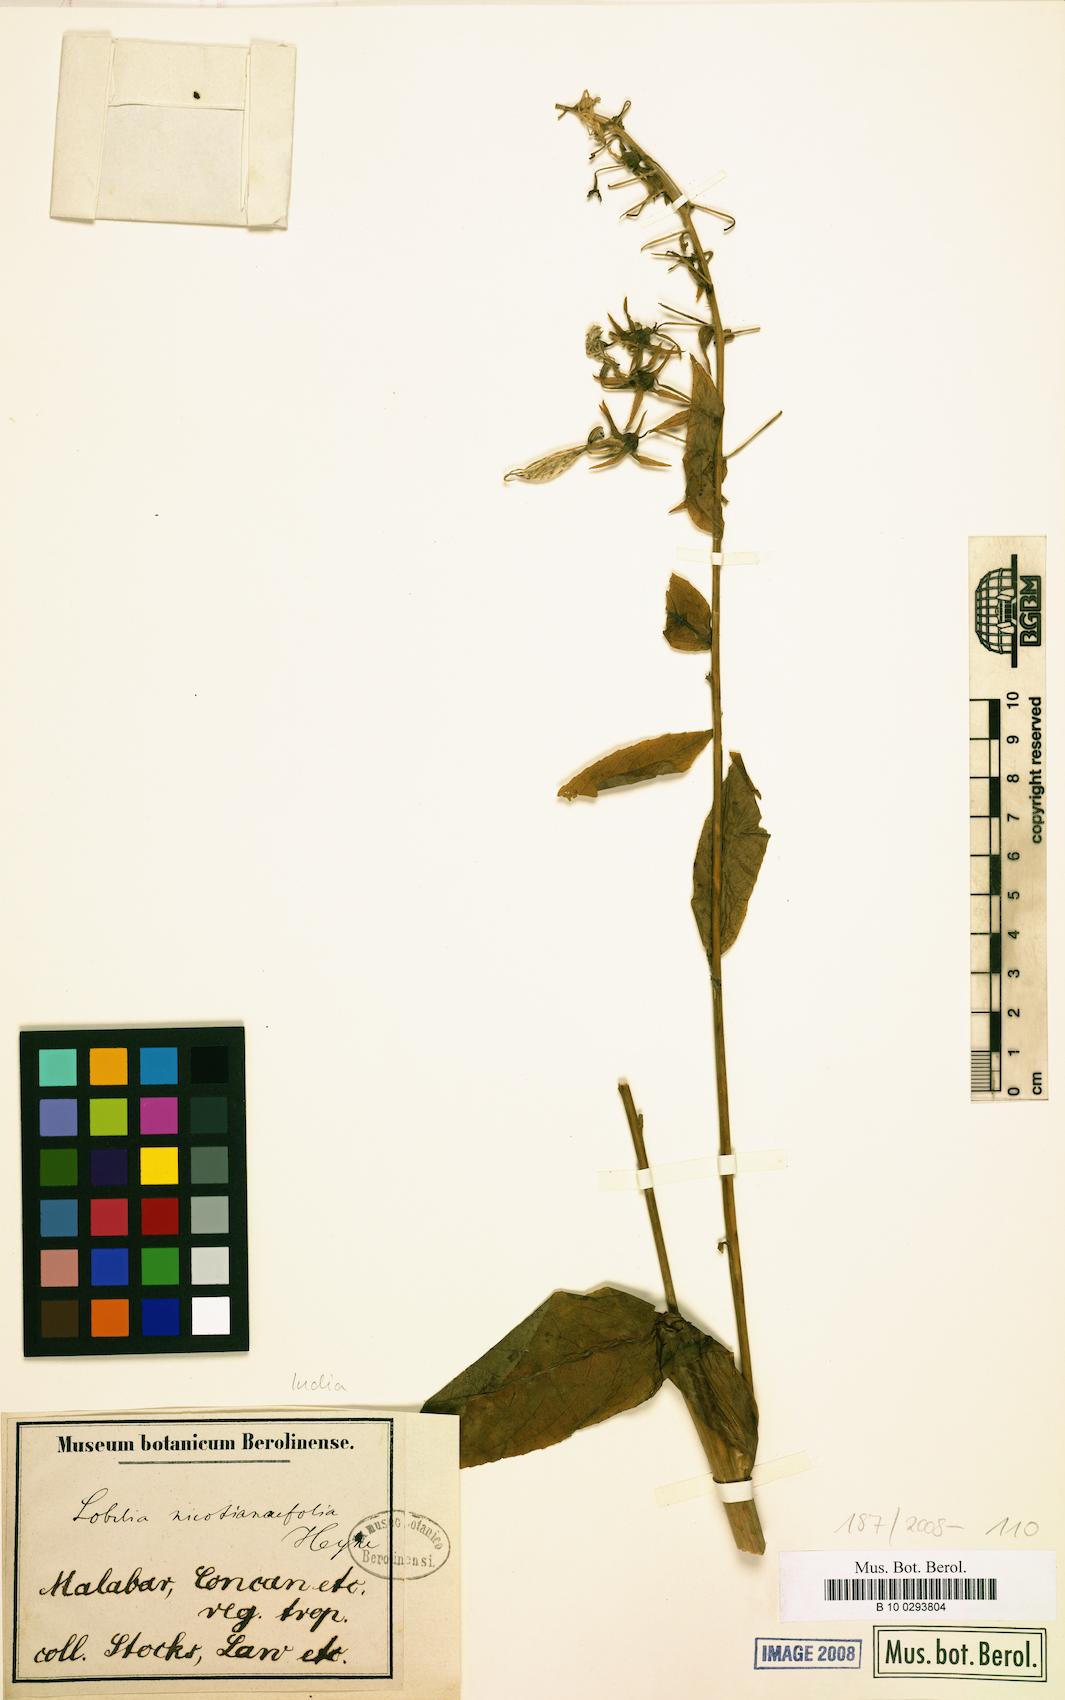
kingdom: Plantae
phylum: Tracheophyta
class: Magnoliopsida
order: Asterales
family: Campanulaceae
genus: Lobelia
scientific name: Lobelia nicotianifolia
